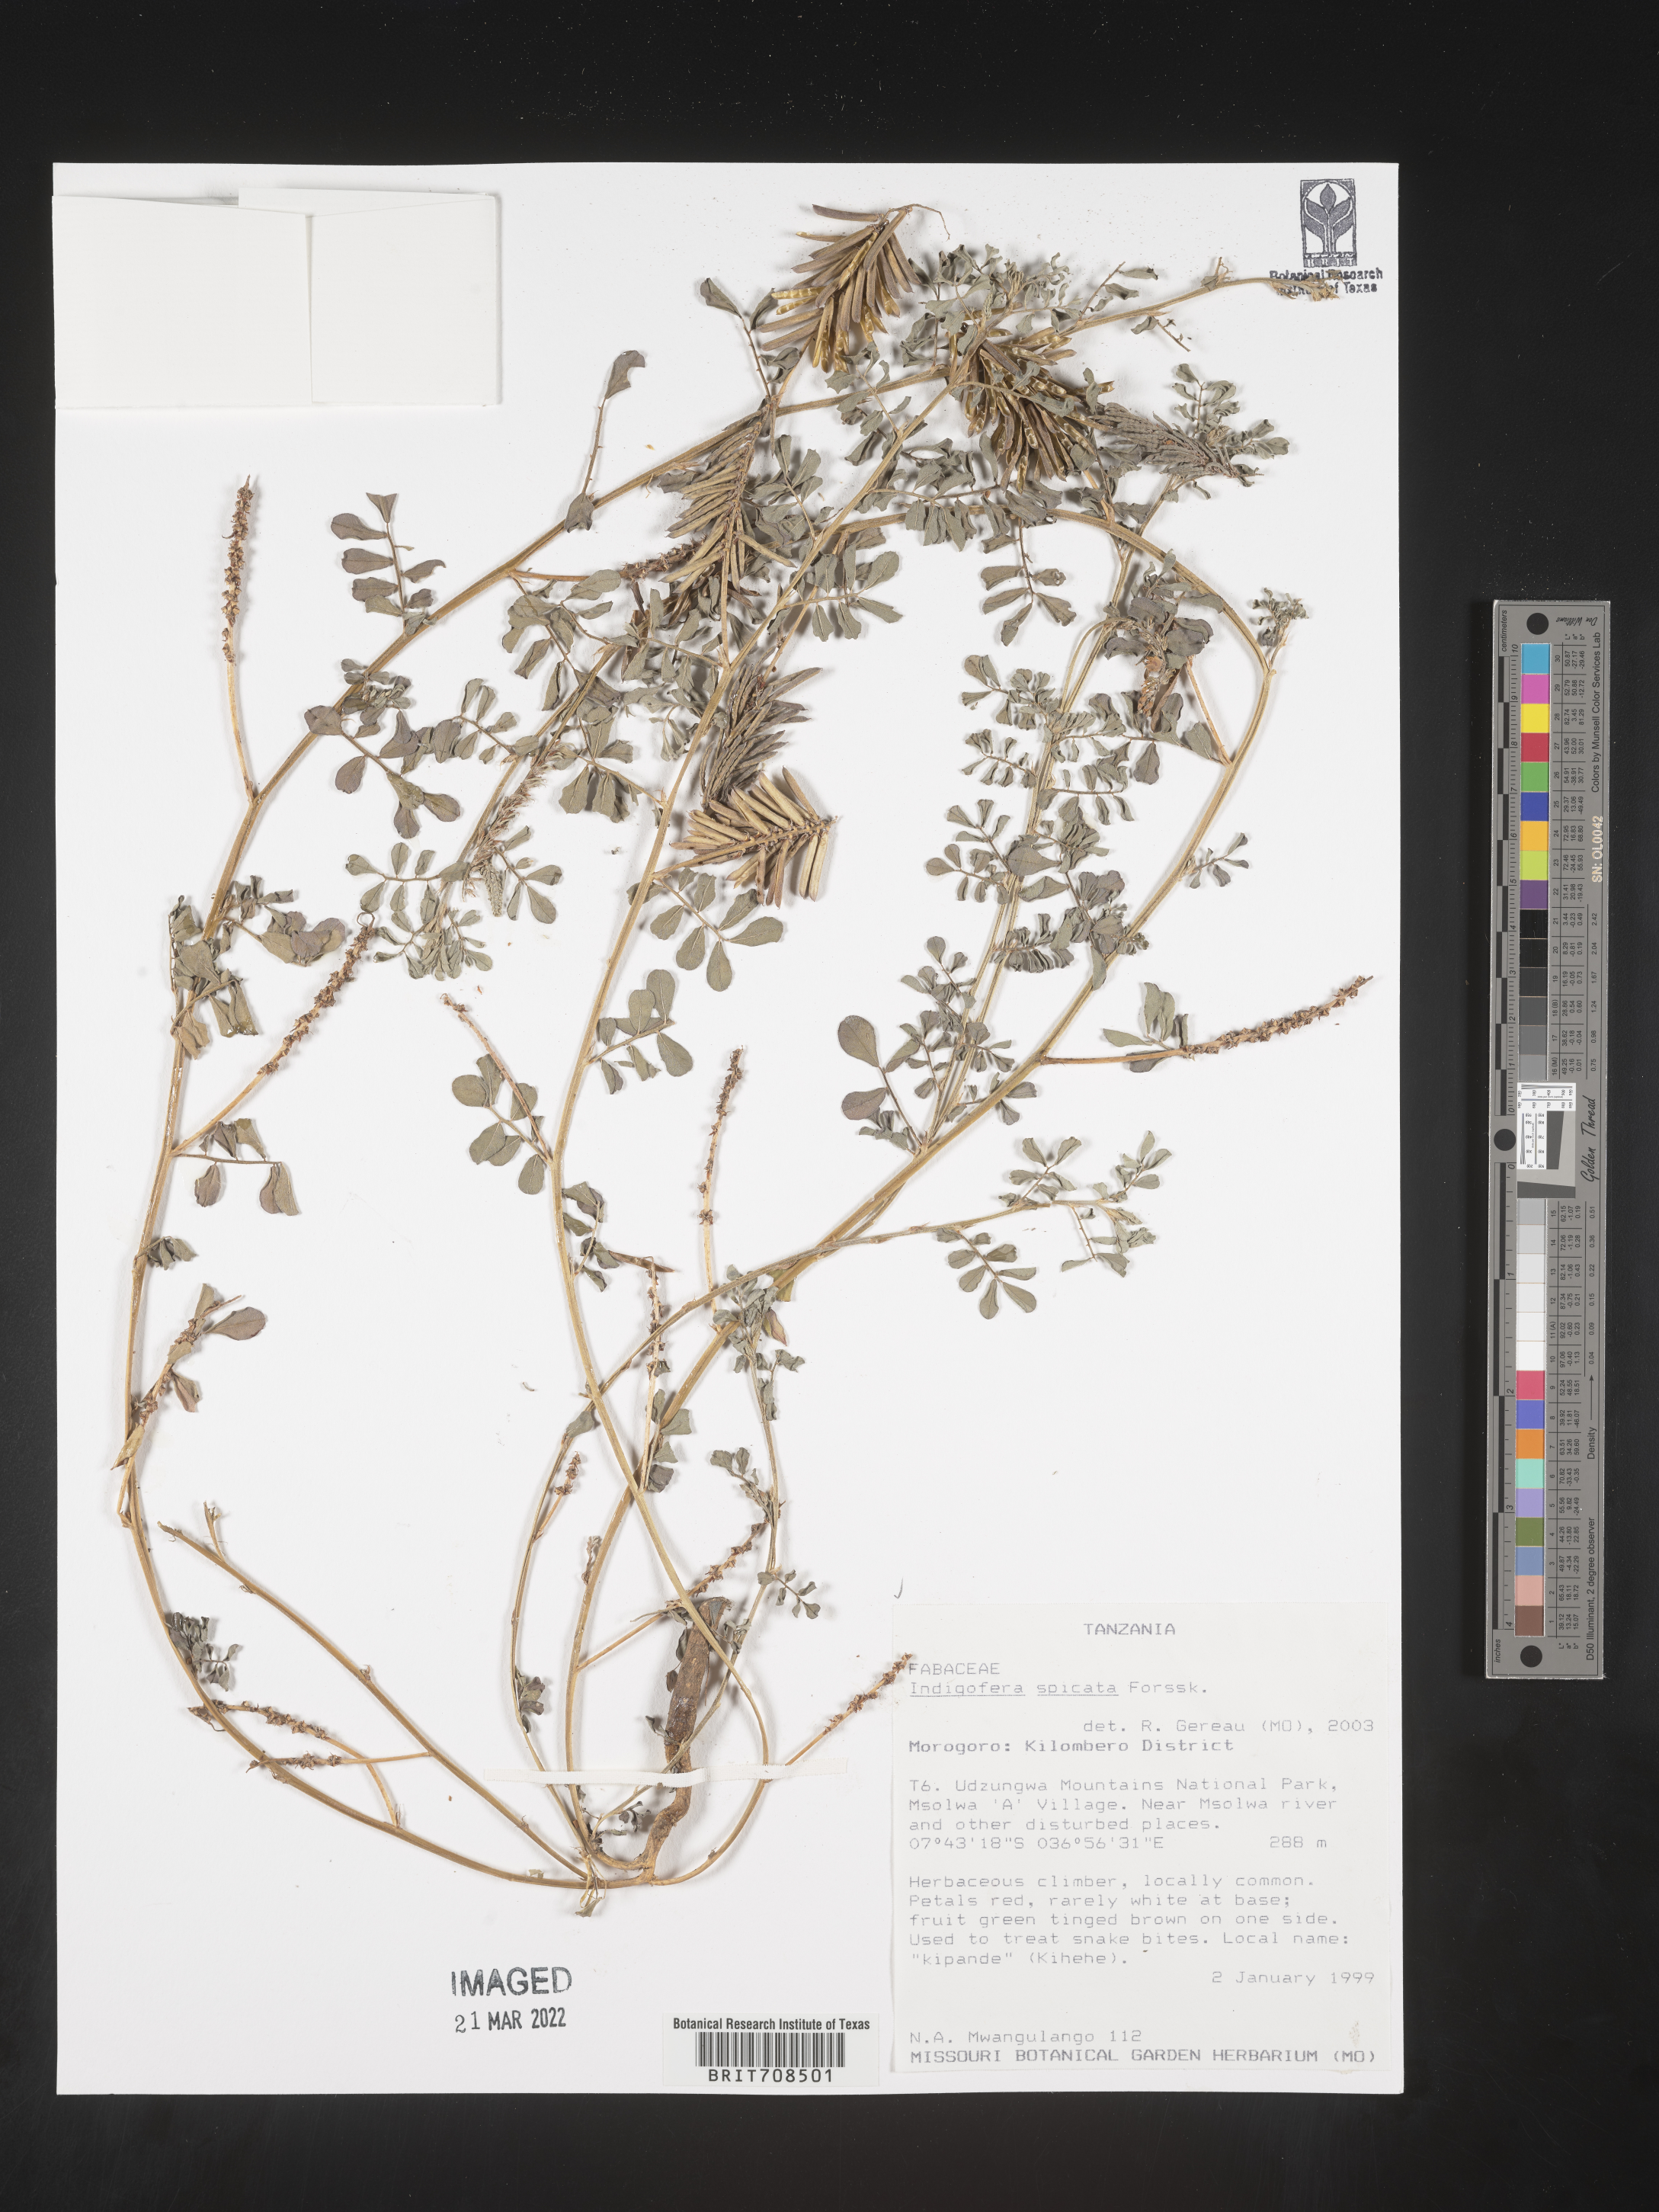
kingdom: Plantae
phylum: Tracheophyta
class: Magnoliopsida
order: Fabales
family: Fabaceae
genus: Indigofera
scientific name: Indigofera
